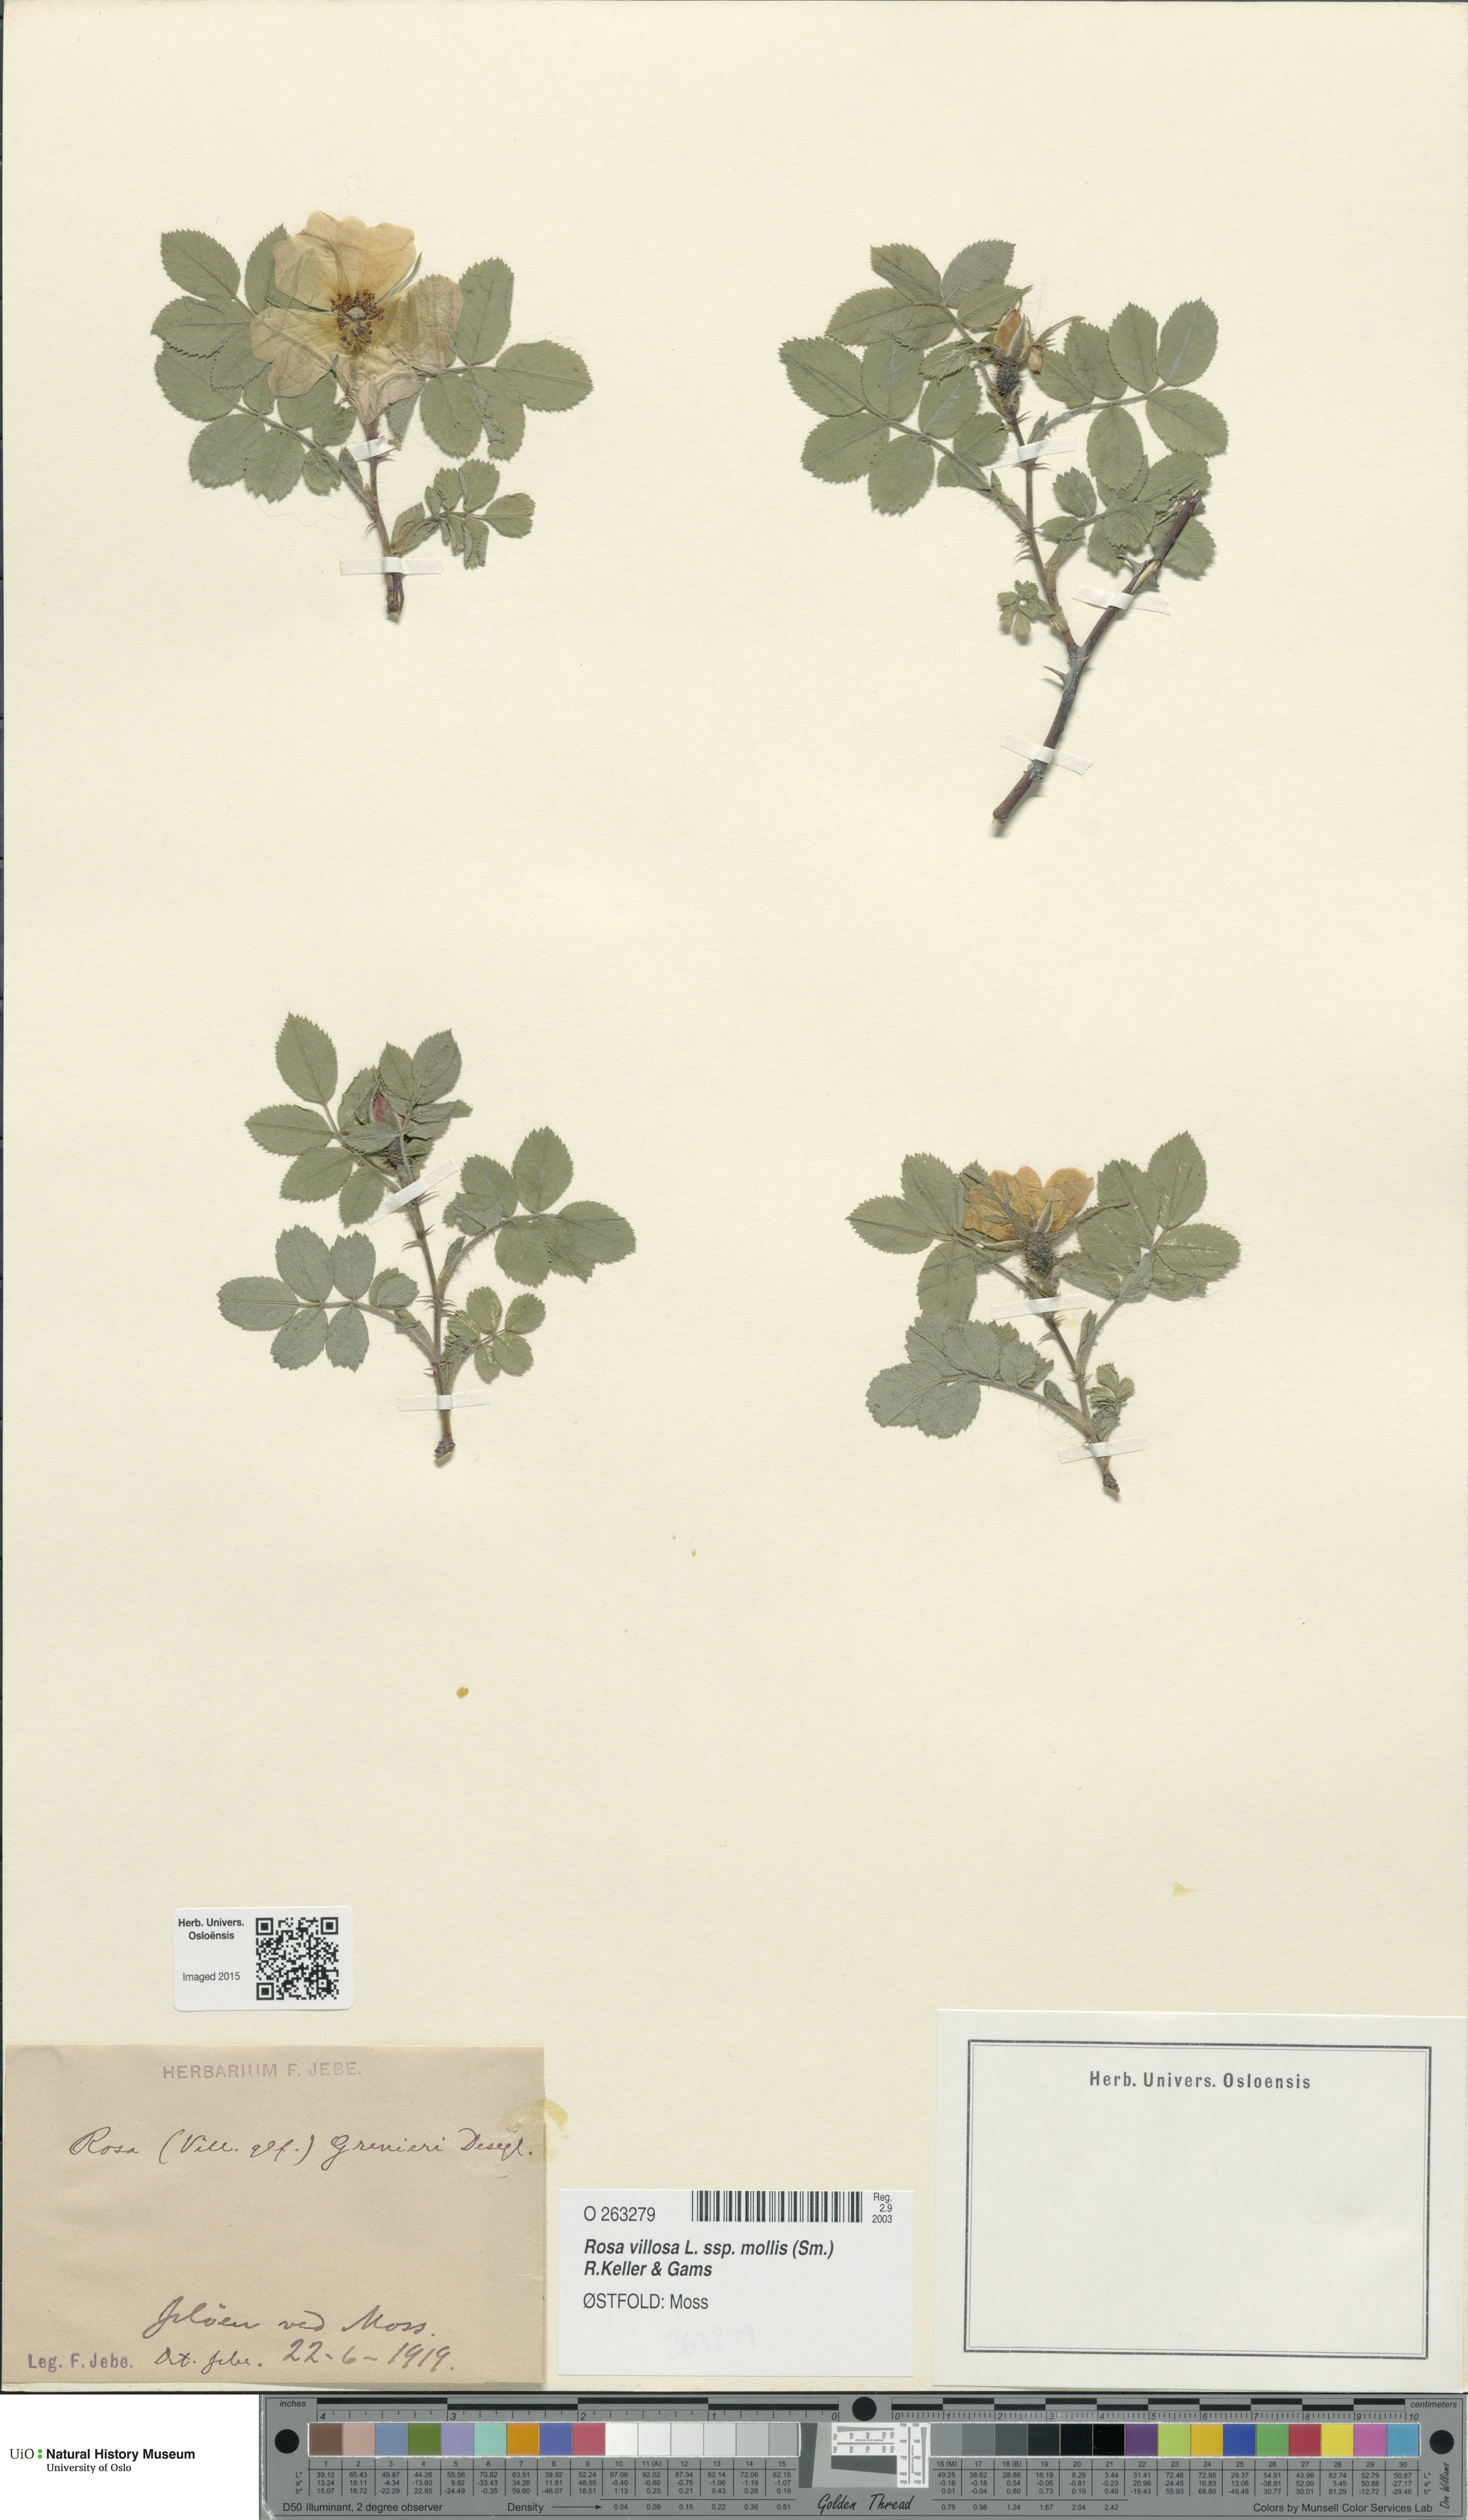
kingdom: Plantae
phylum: Tracheophyta
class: Magnoliopsida
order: Rosales
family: Rosaceae
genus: Rosa
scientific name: Rosa mollis
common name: Rose
